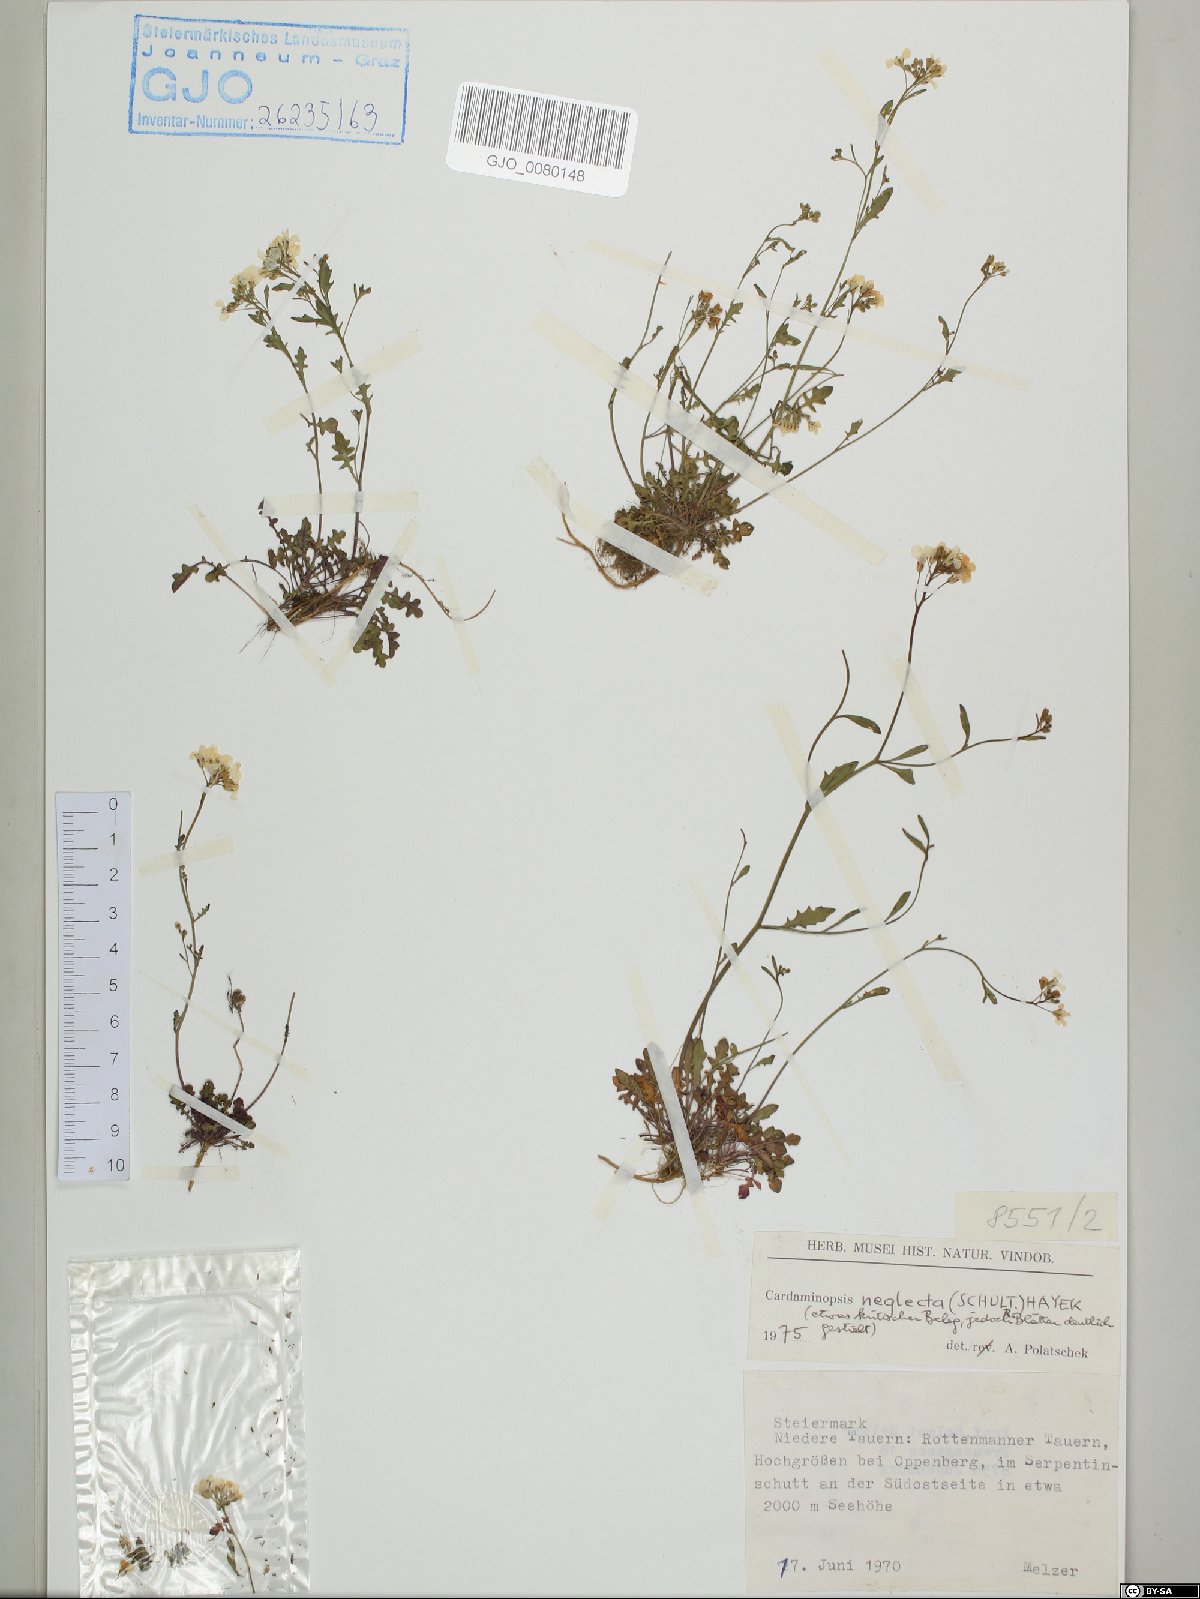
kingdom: Plantae
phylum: Tracheophyta
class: Magnoliopsida
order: Brassicales
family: Brassicaceae
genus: Arabidopsis
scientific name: Arabidopsis neglecta
